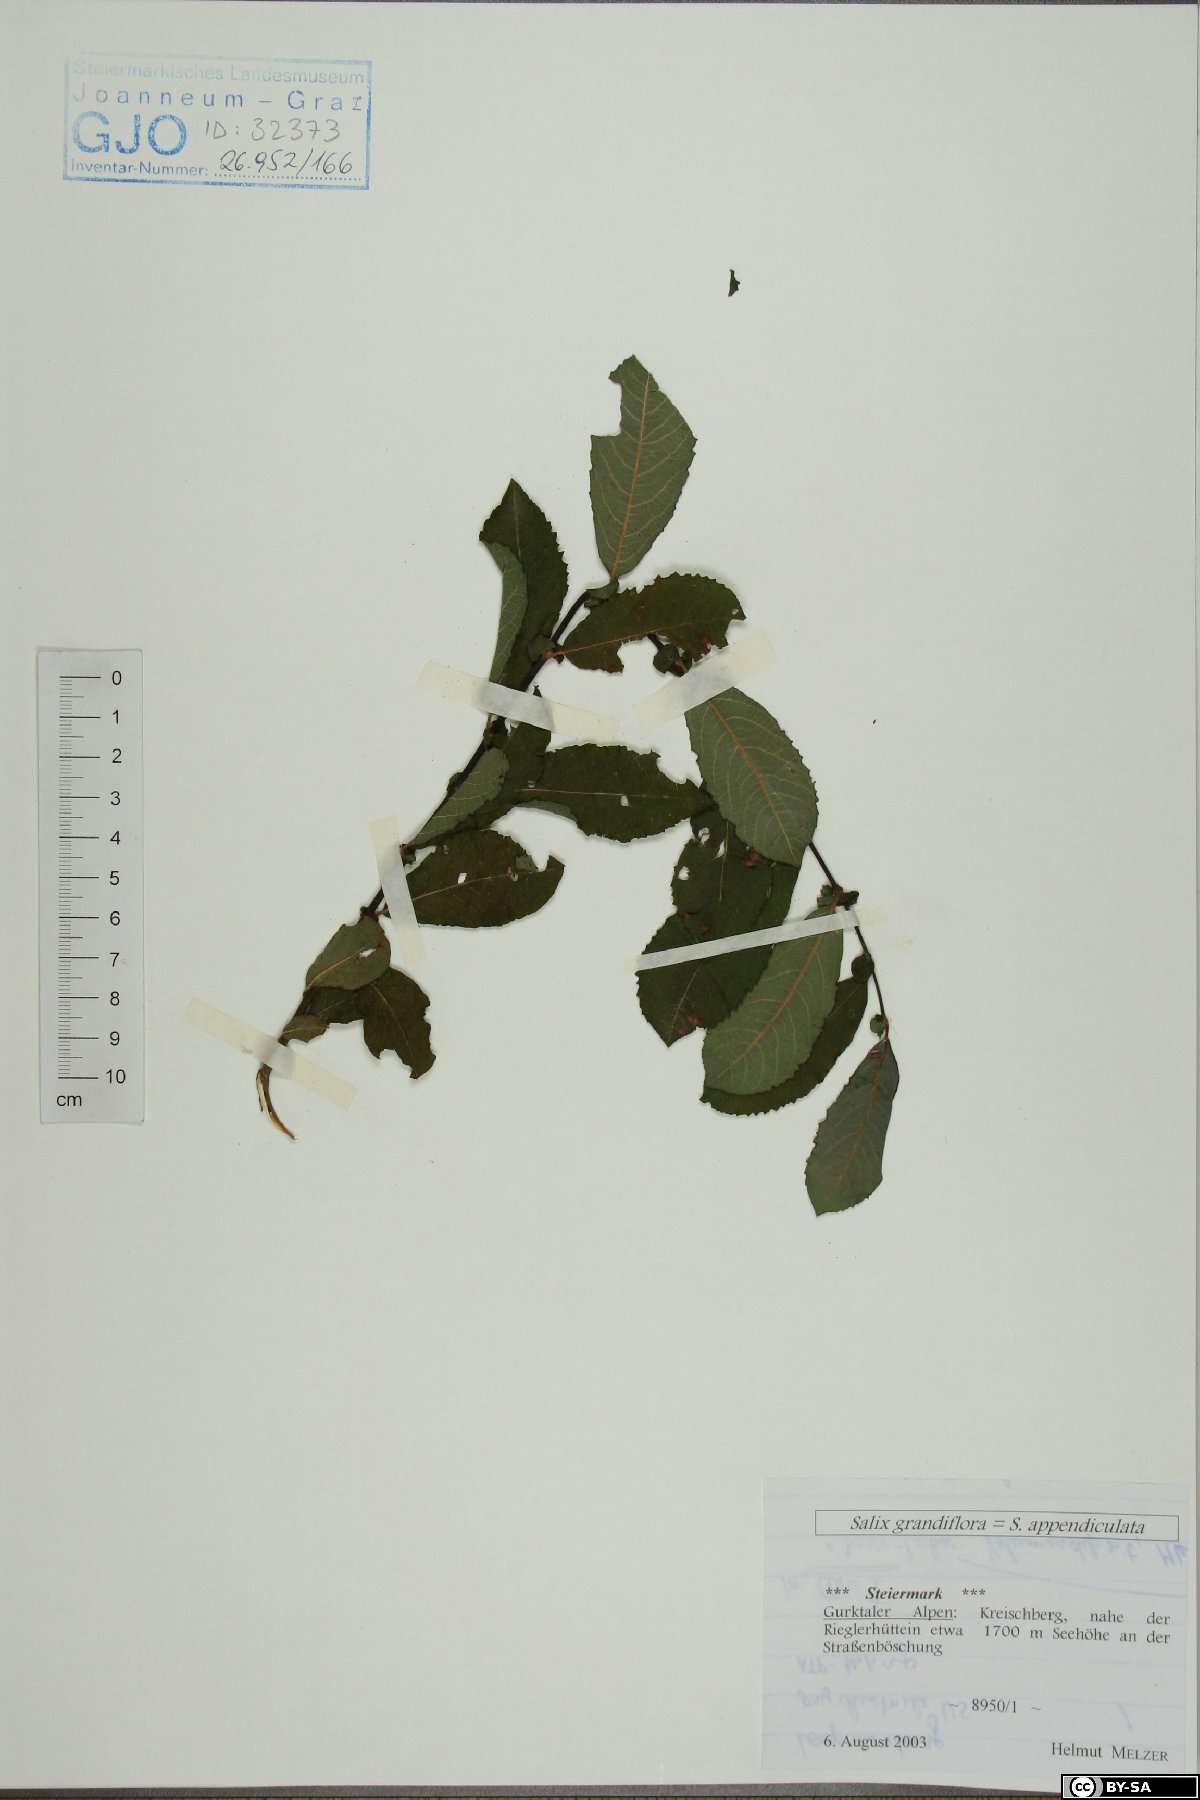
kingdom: Plantae
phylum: Tracheophyta
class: Magnoliopsida
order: Malpighiales
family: Salicaceae
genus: Salix
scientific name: Salix appendiculata
